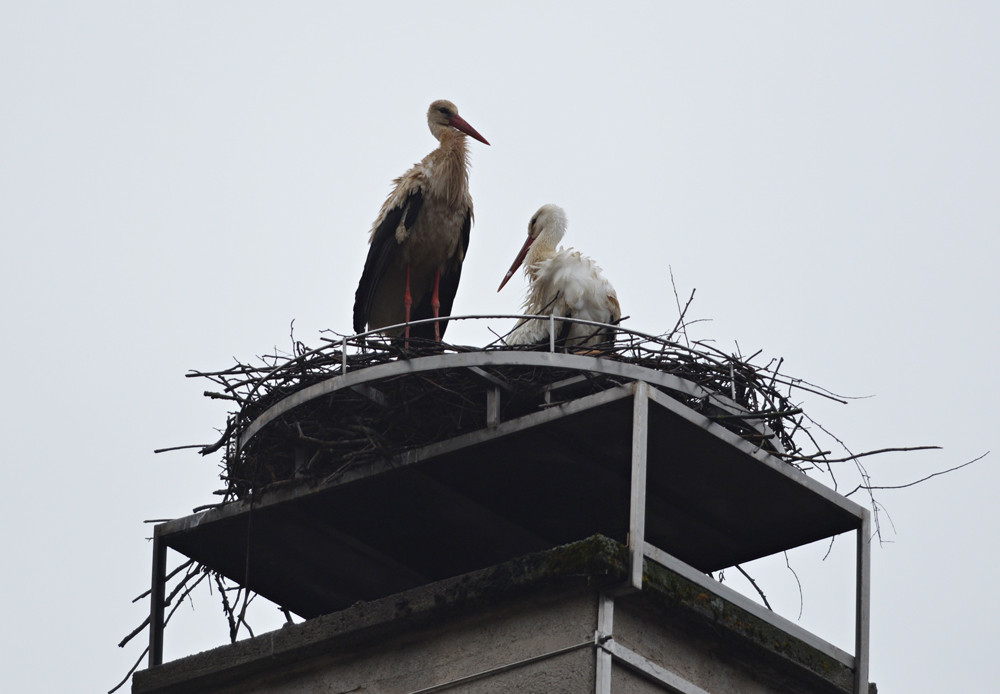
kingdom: Animalia
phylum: Chordata
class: Aves
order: Ciconiiformes
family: Ciconiidae
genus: Ciconia
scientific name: Ciconia ciconia
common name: White stork
